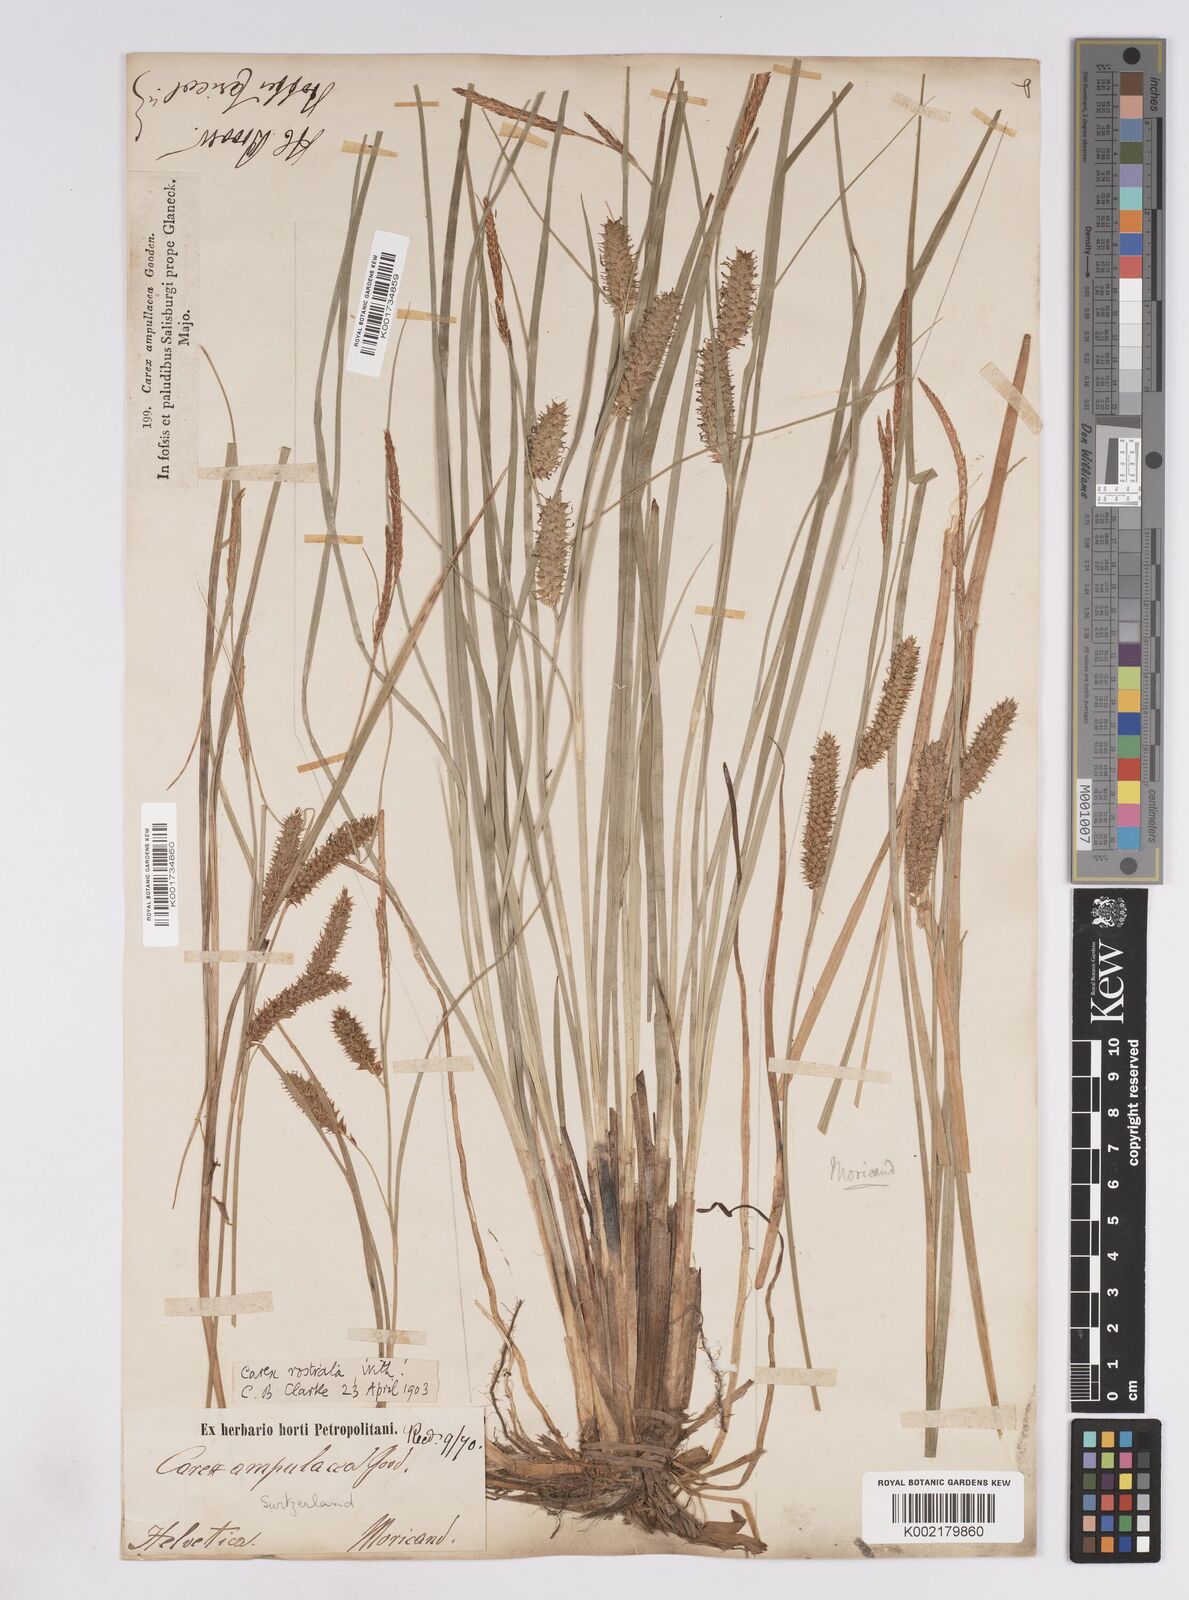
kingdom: Plantae
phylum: Tracheophyta
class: Liliopsida
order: Poales
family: Cyperaceae
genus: Carex
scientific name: Carex rostrata
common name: Bottle sedge
